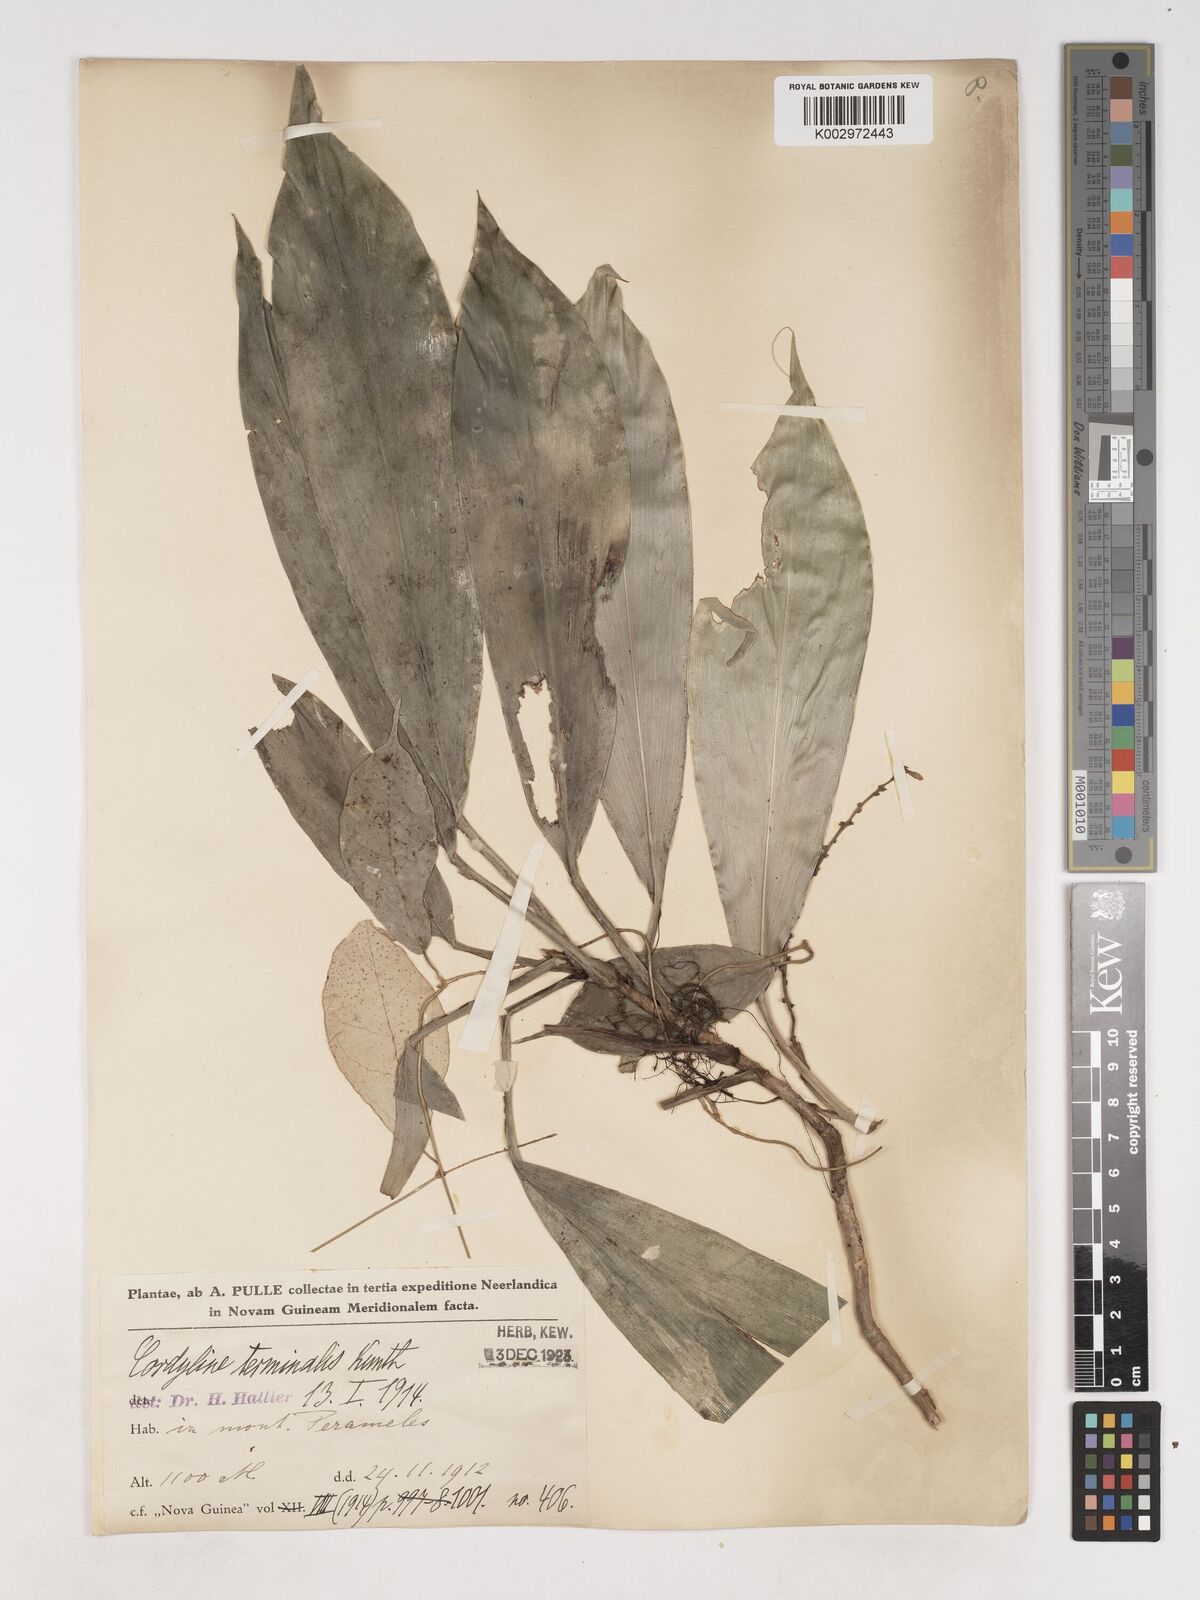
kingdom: Plantae
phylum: Tracheophyta
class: Liliopsida
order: Asparagales
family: Asparagaceae
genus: Cordyline
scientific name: Cordyline fruticosa
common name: Good-luck-plant
